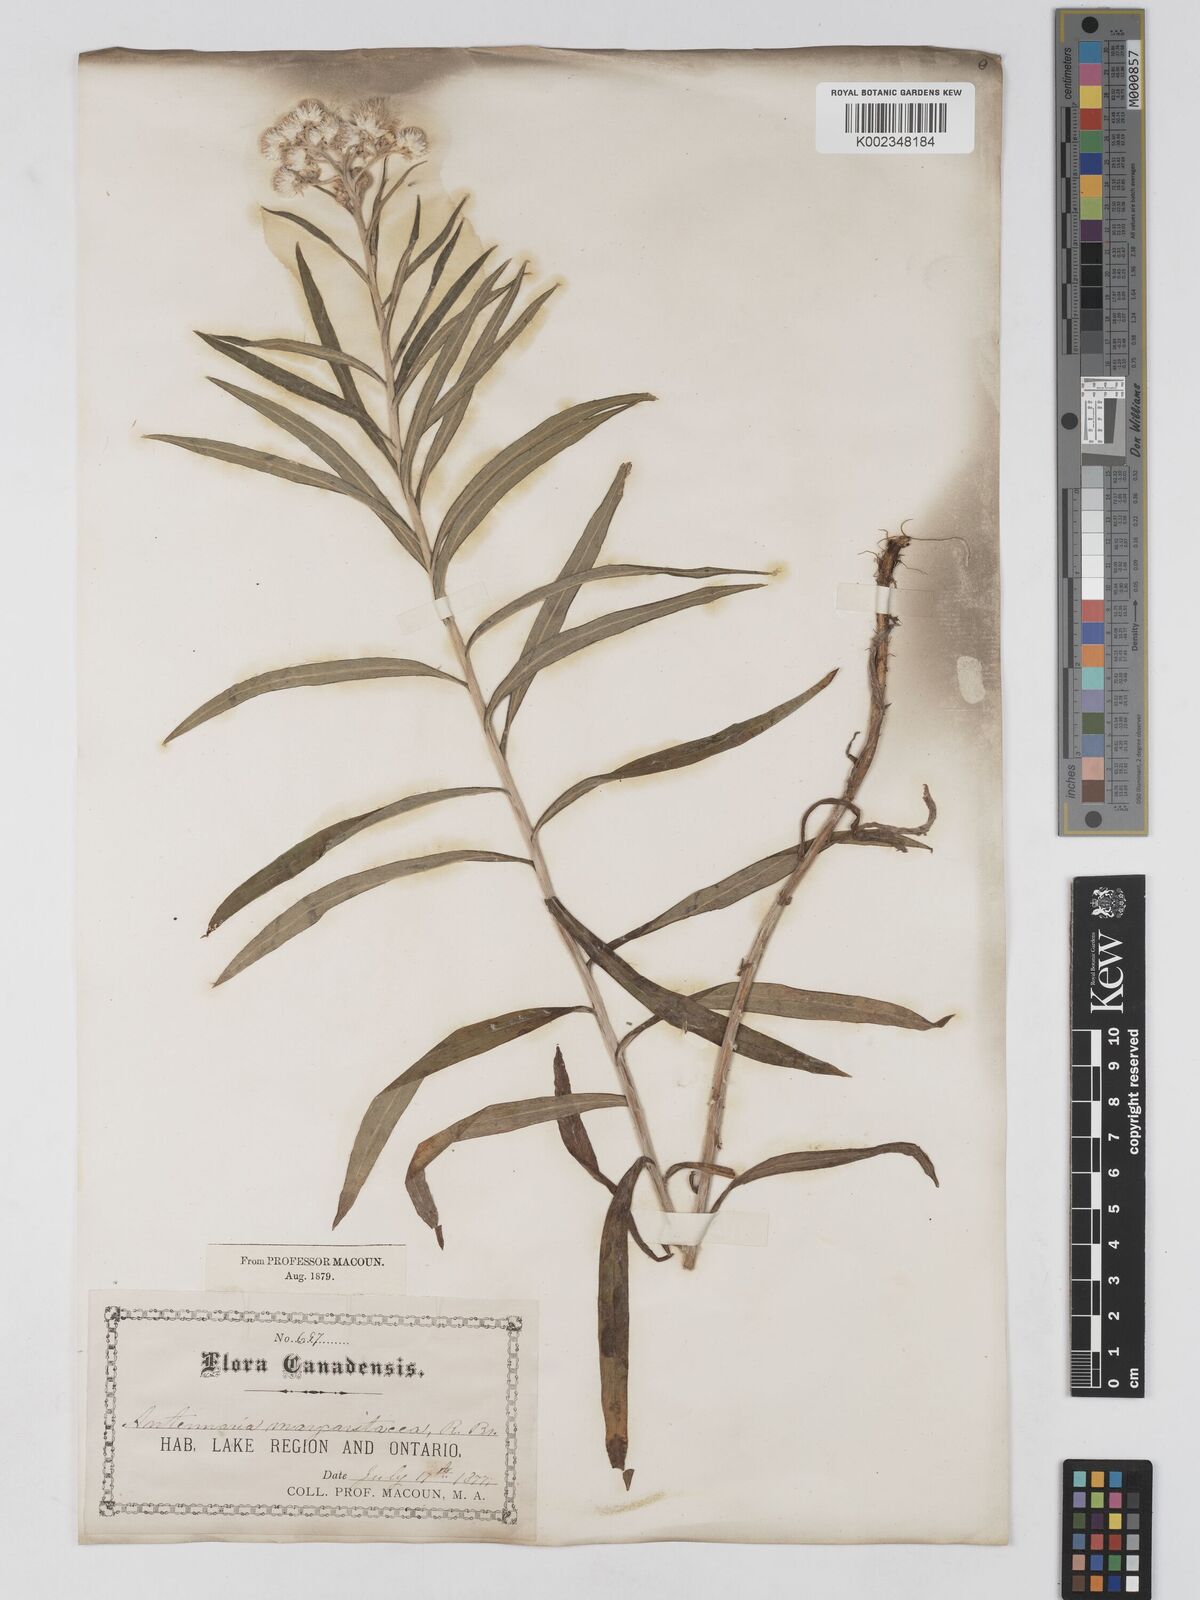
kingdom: Plantae
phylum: Tracheophyta
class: Magnoliopsida
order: Asterales
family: Asteraceae
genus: Anaphalis
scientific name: Anaphalis margaritacea
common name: Pearly everlasting
